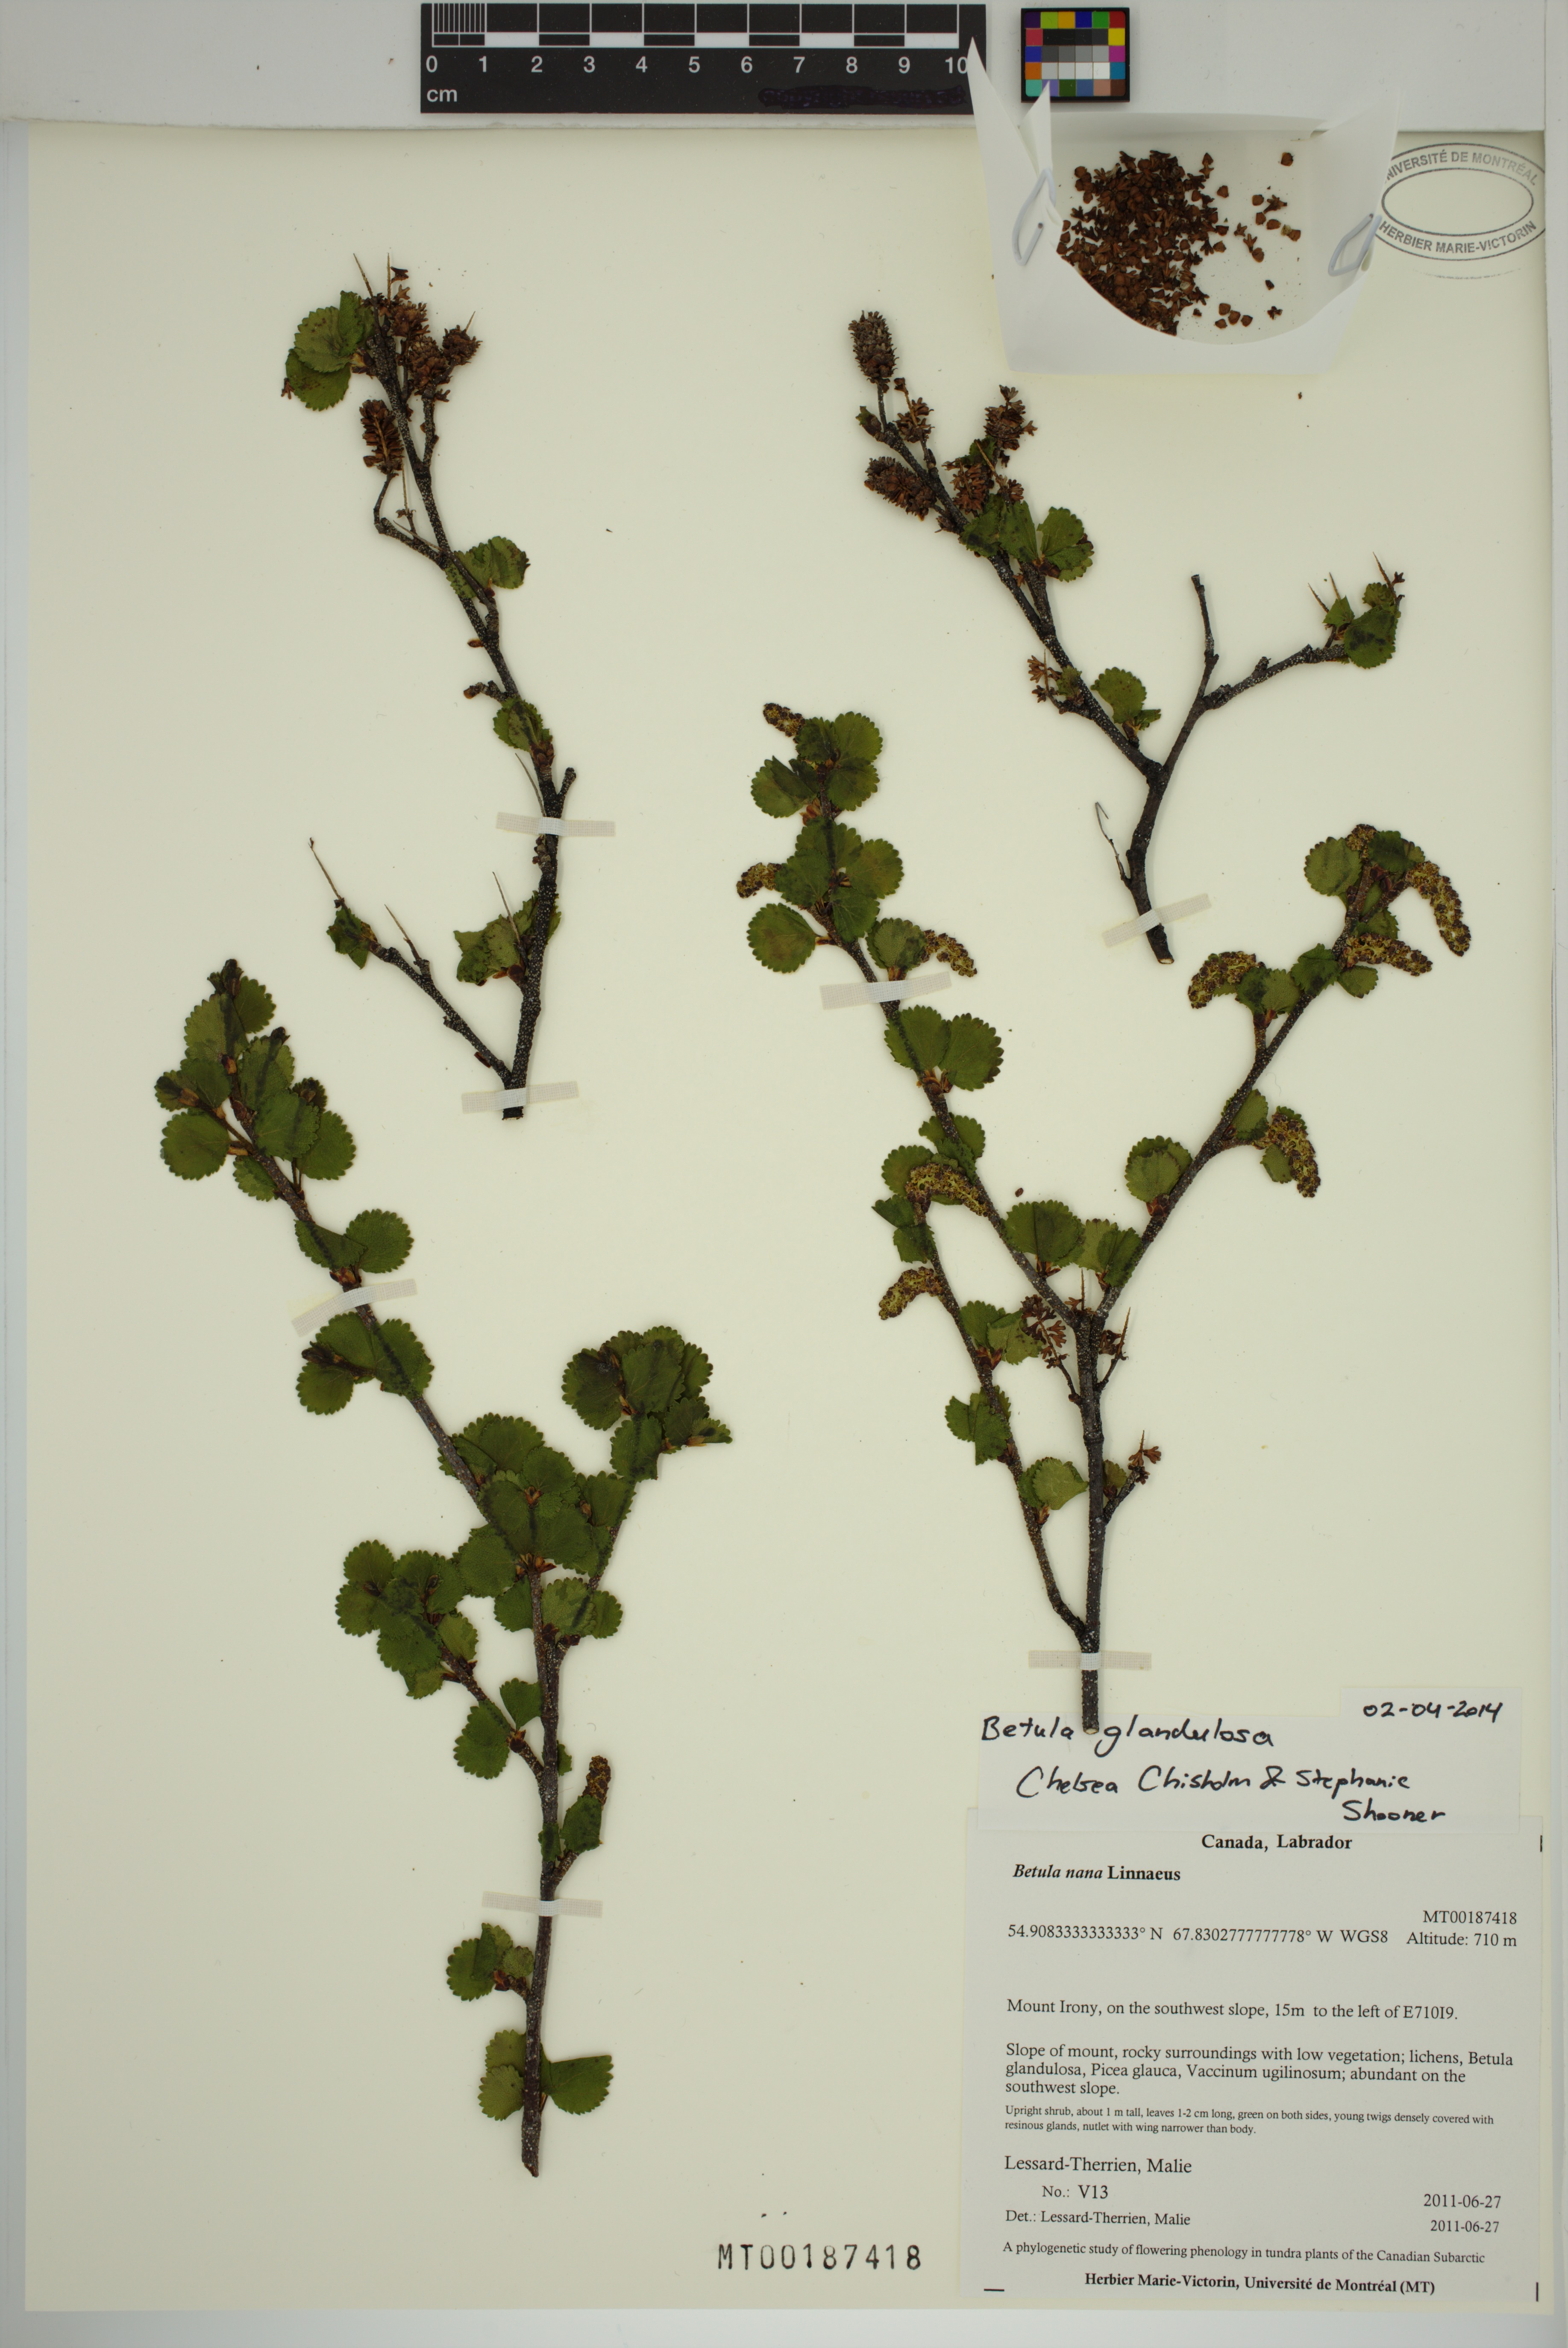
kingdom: Plantae
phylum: Tracheophyta
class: Magnoliopsida
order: Fagales
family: Betulaceae
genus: Betula
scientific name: Betula glandulosa
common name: Dwarf birch
